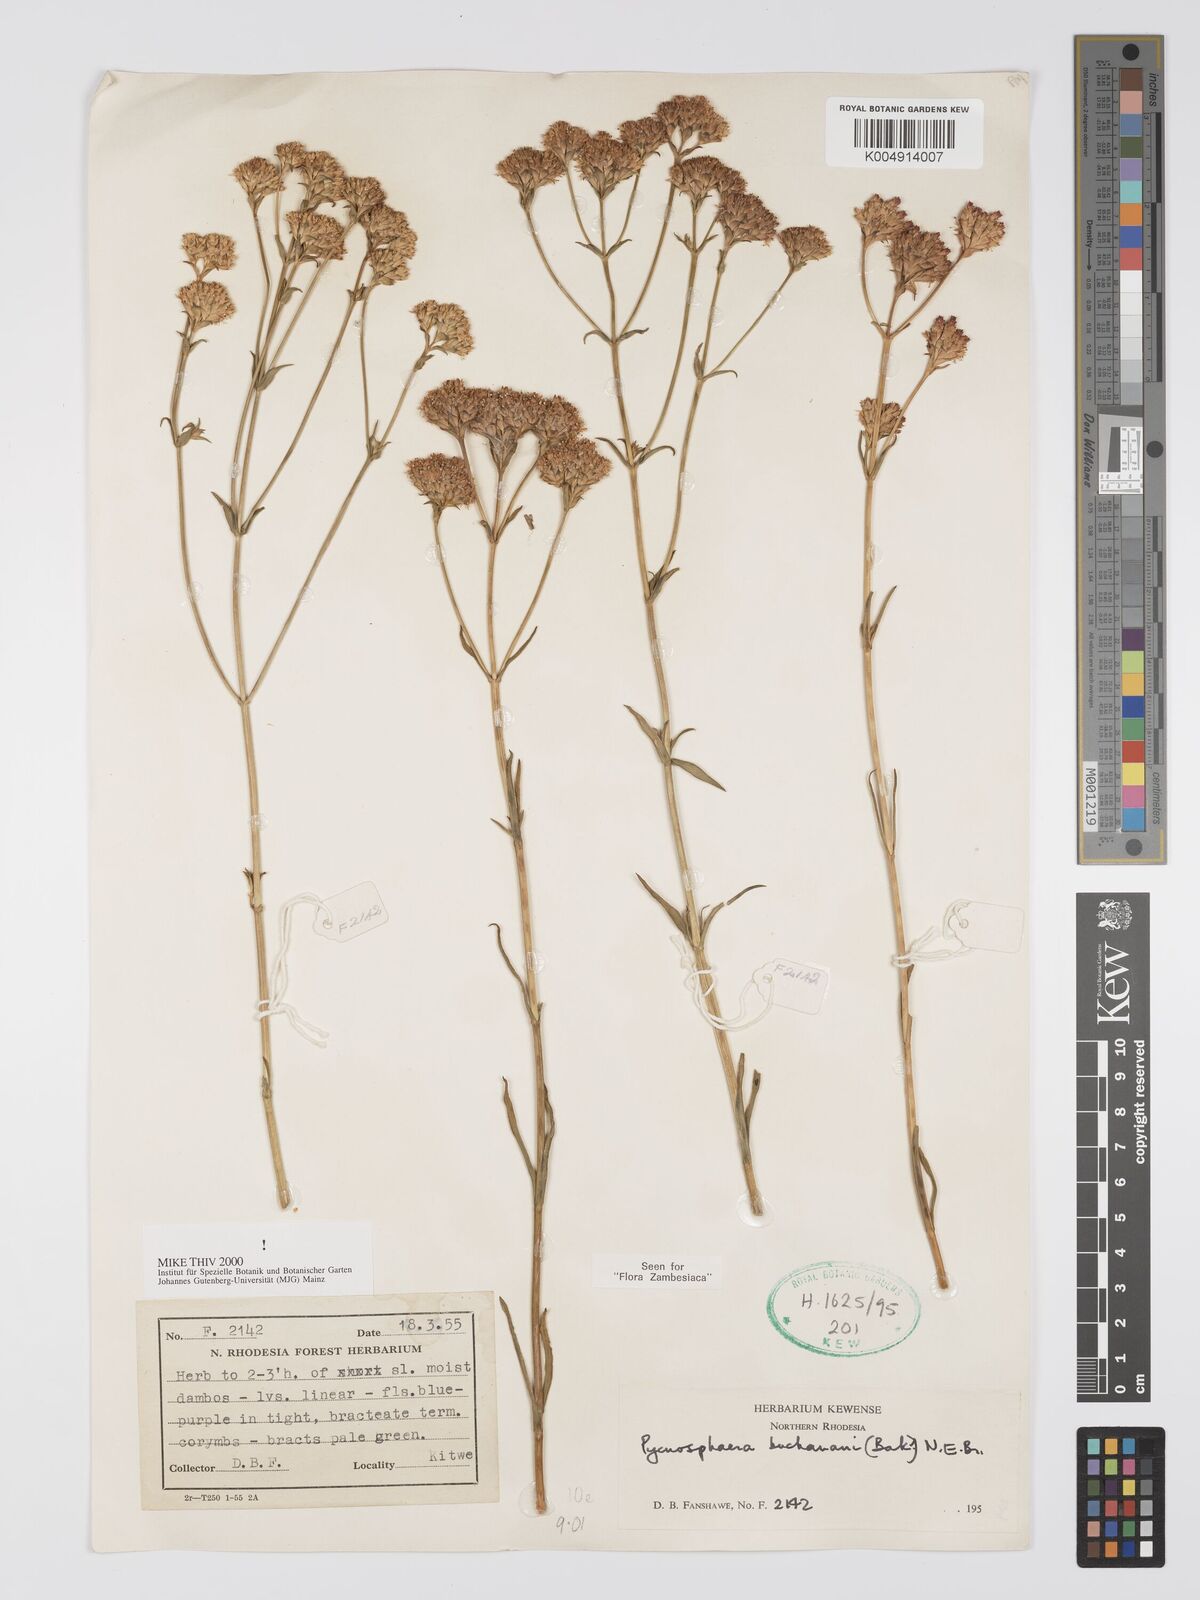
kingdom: Plantae
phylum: Tracheophyta
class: Magnoliopsida
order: Gentianales
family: Gentianaceae
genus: Pycnosphaera
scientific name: Pycnosphaera buchananii
